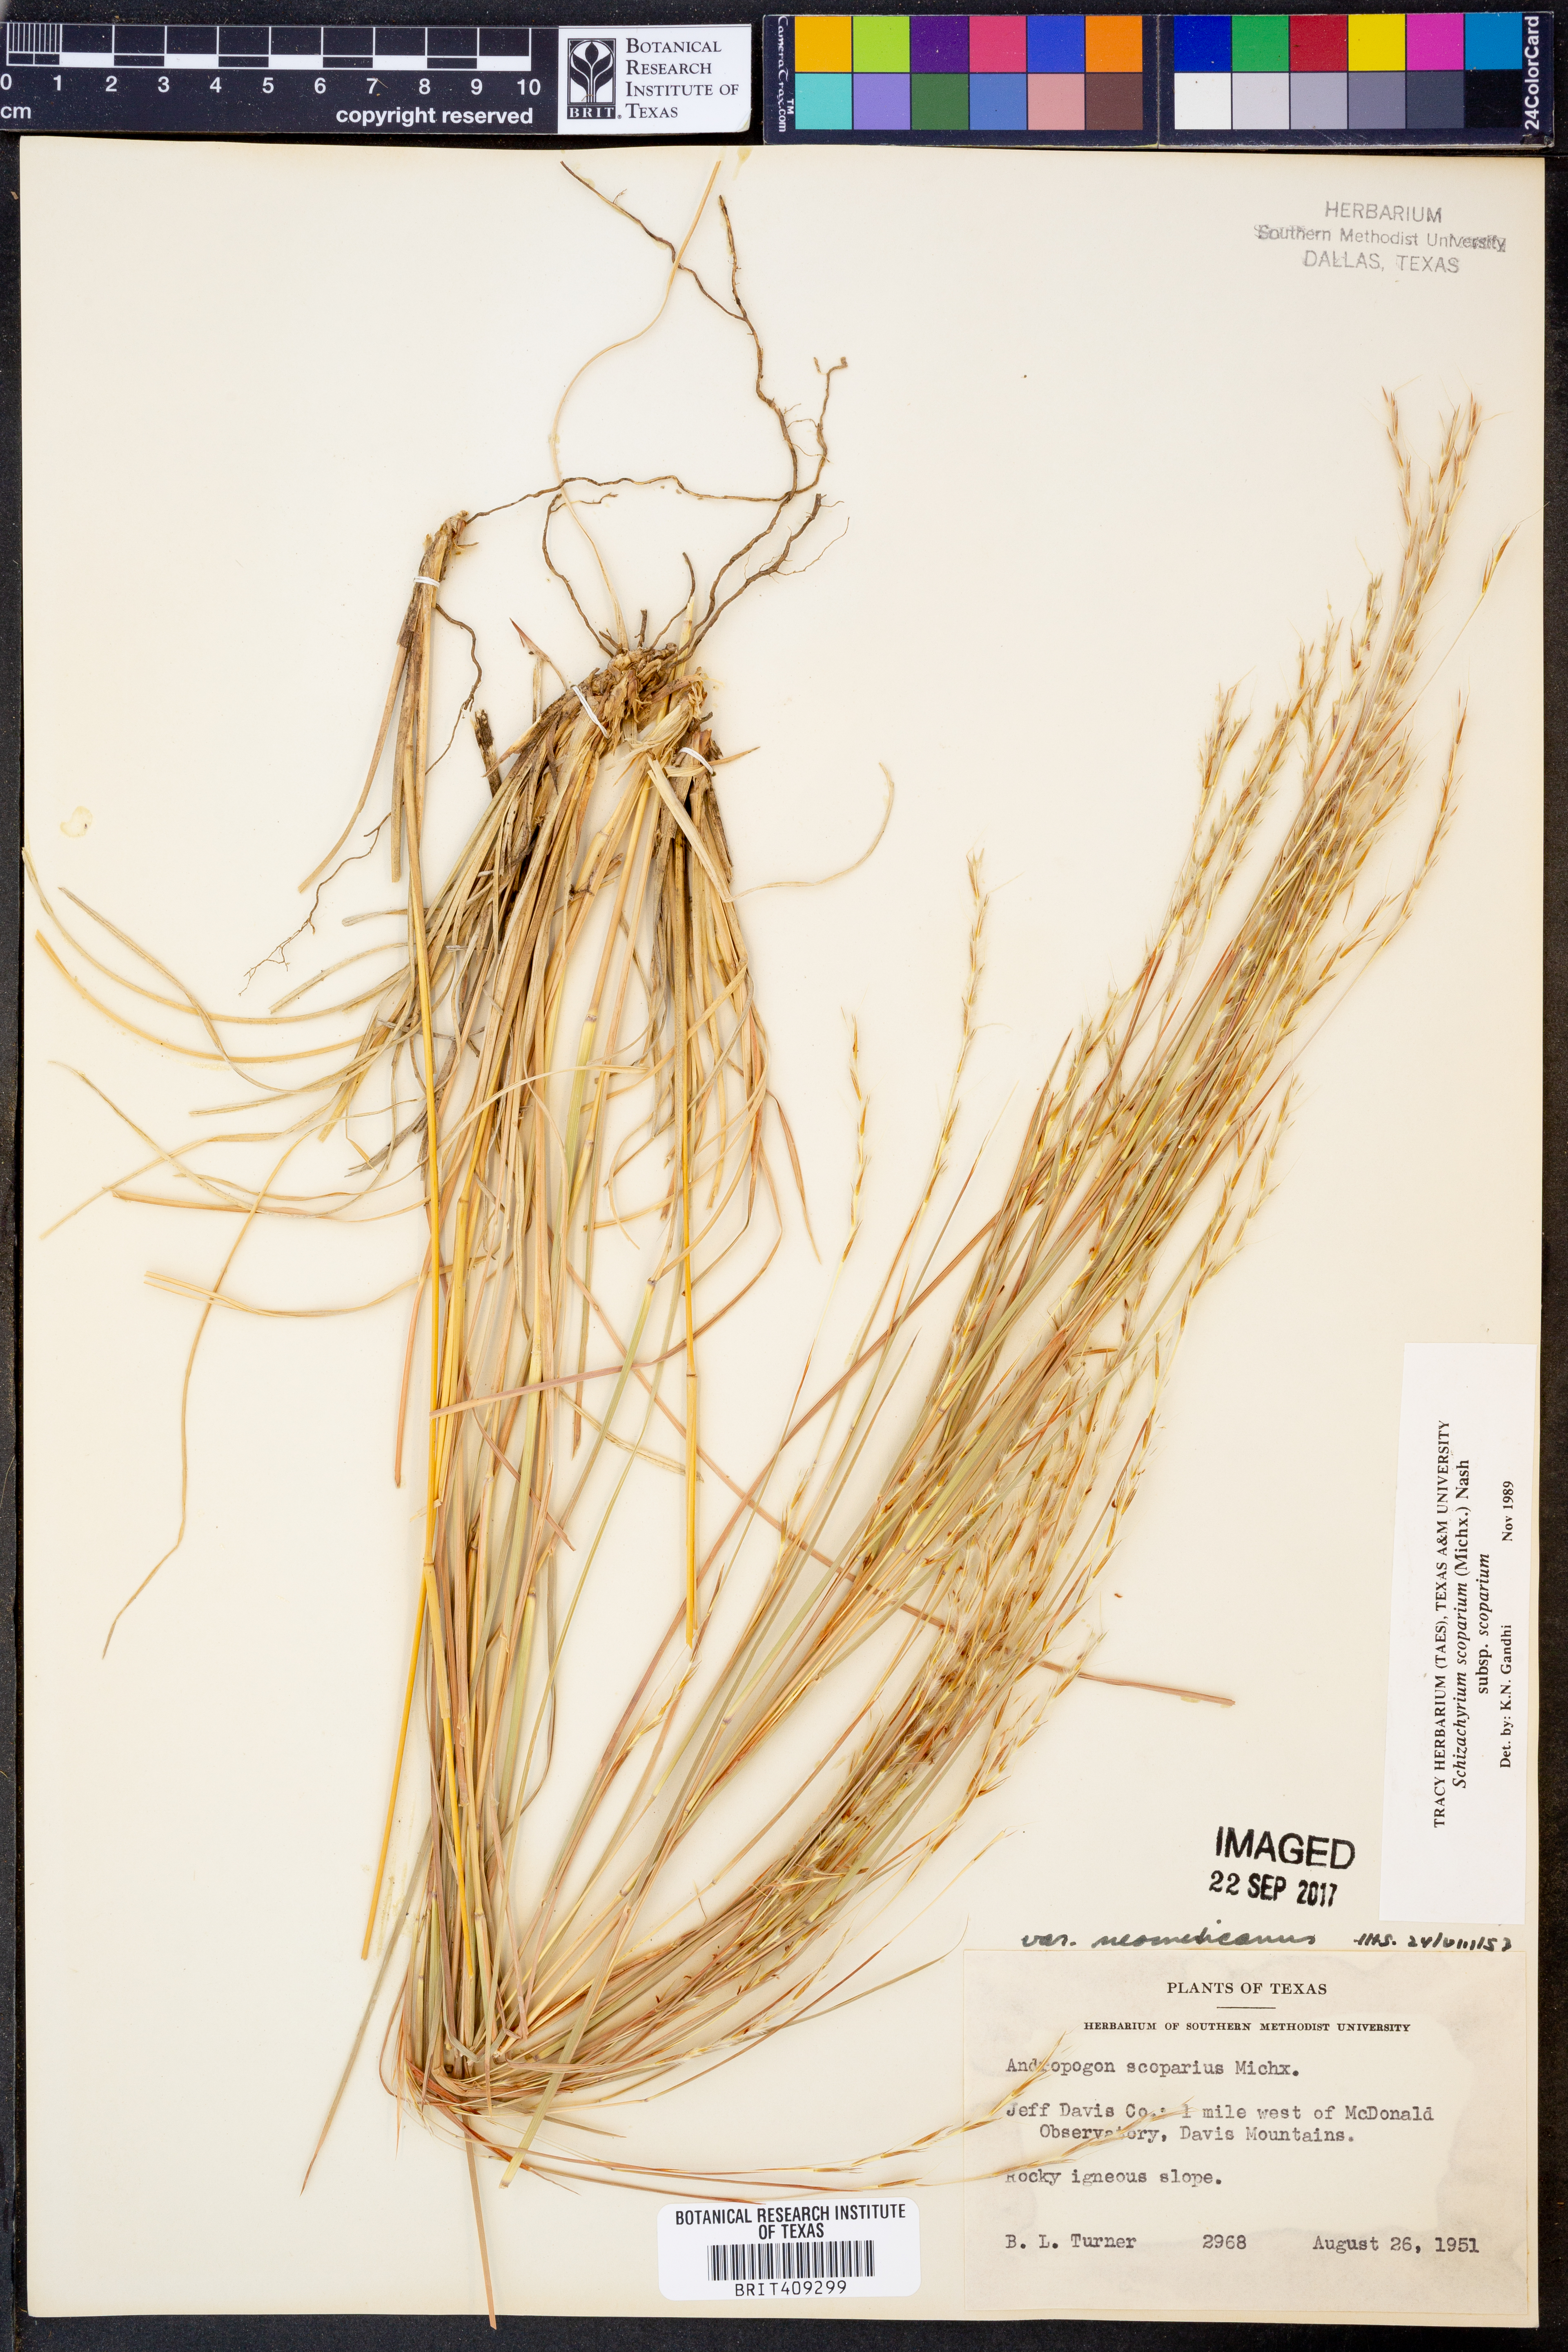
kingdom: Plantae
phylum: Tracheophyta
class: Liliopsida
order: Poales
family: Poaceae
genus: Schizachyrium
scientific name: Schizachyrium scoparium
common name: Little bluestem
